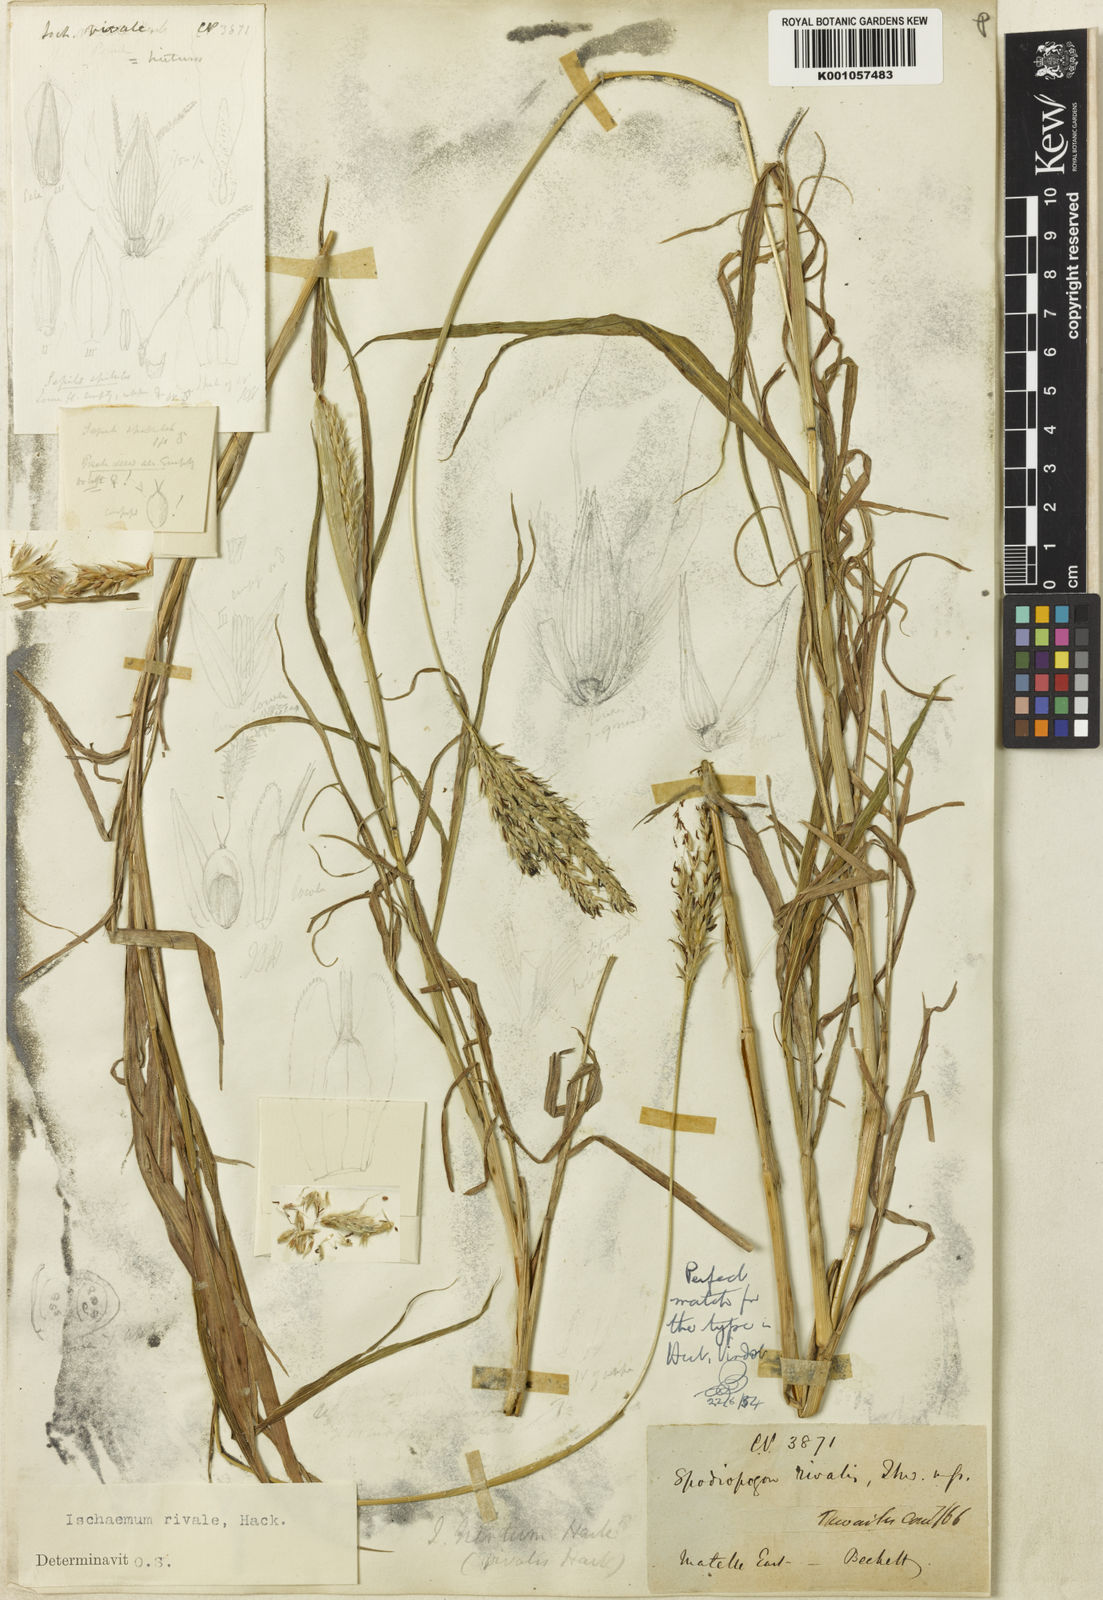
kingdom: Plantae
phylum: Tracheophyta
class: Liliopsida
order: Poales
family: Poaceae
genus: Ischaemum
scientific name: Ischaemum polystachyum
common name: Paddle grass
